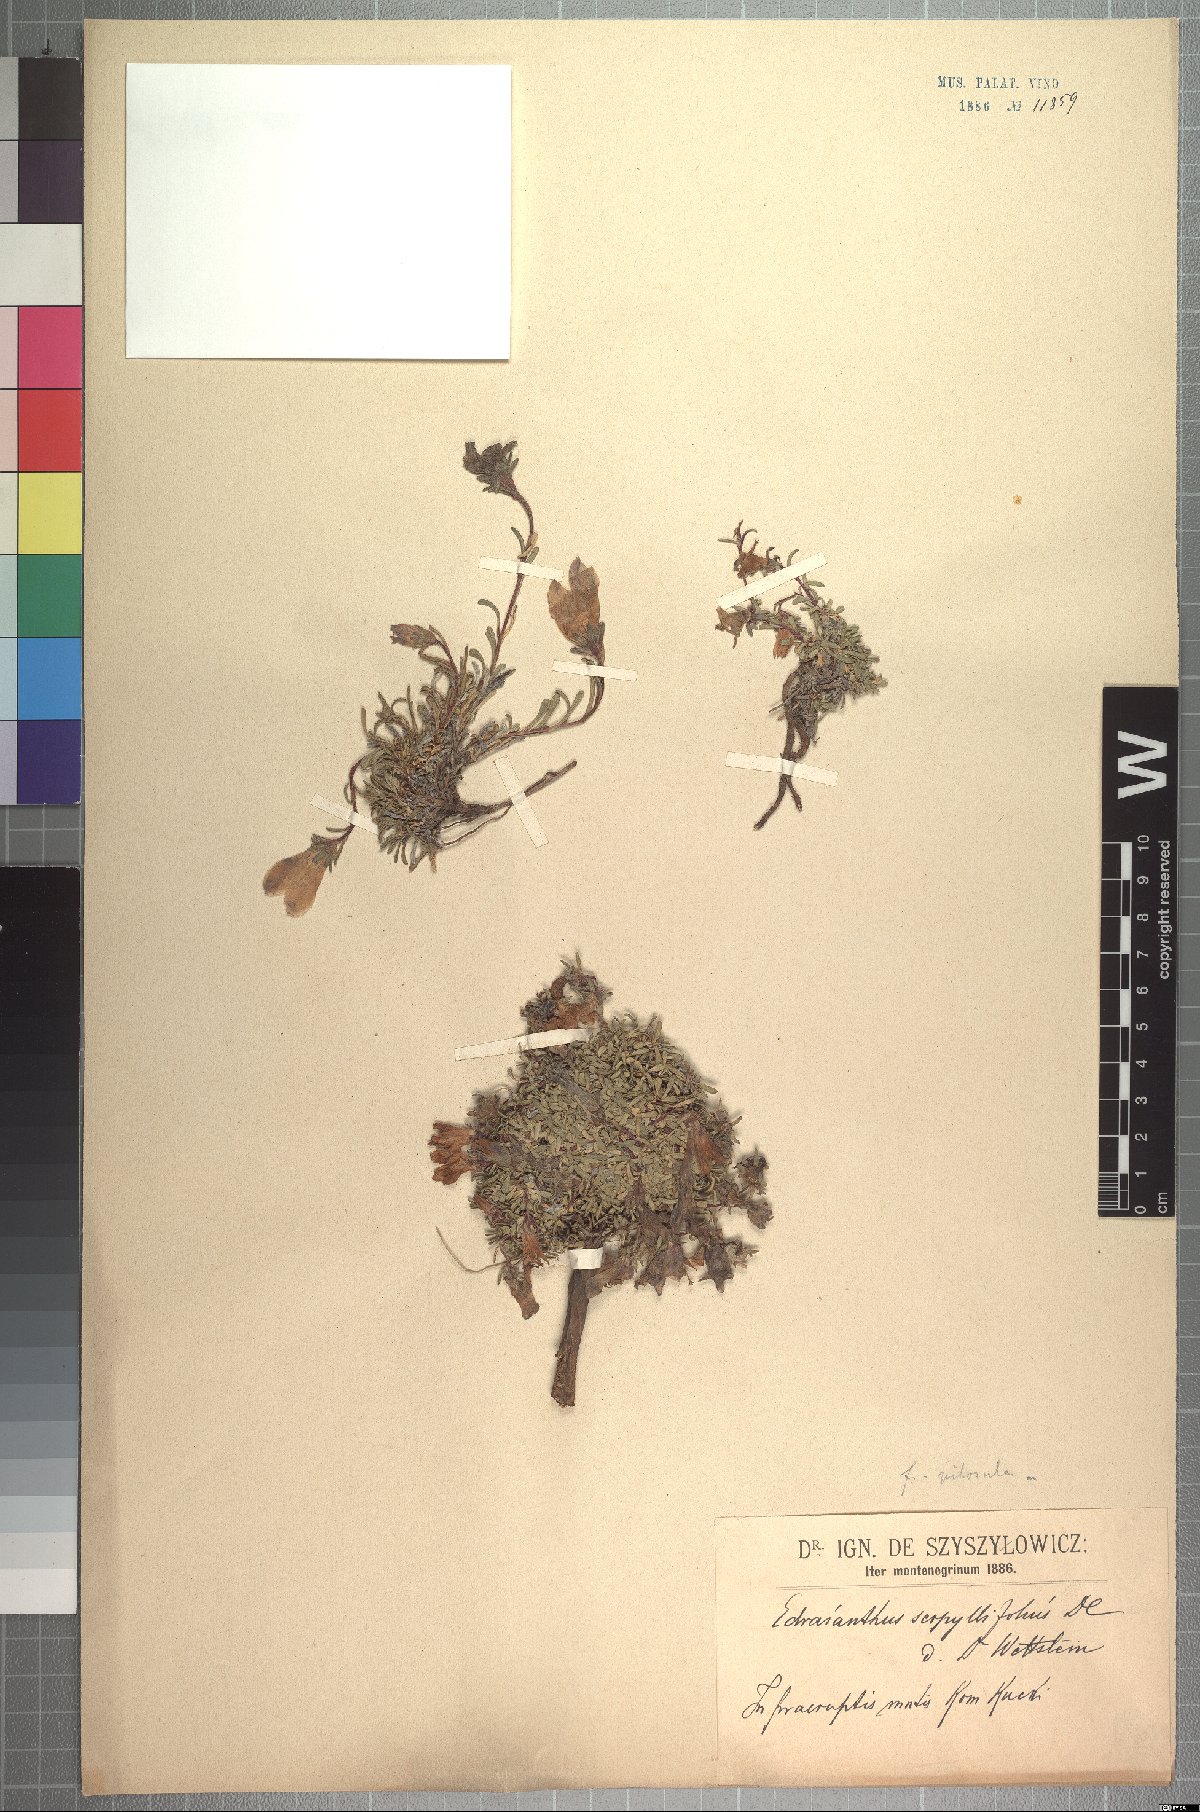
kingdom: Plantae
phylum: Tracheophyta
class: Magnoliopsida
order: Asterales
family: Campanulaceae
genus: Edraianthus
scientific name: Edraianthus pilosulus
